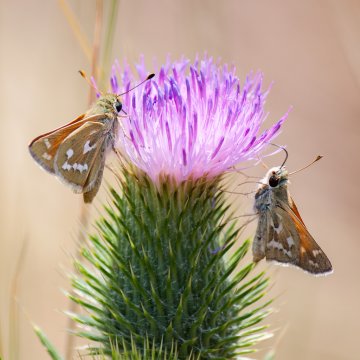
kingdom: Animalia
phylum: Arthropoda
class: Insecta
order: Lepidoptera
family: Hesperiidae
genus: Hesperia
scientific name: Hesperia juba
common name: Juba Skipper
